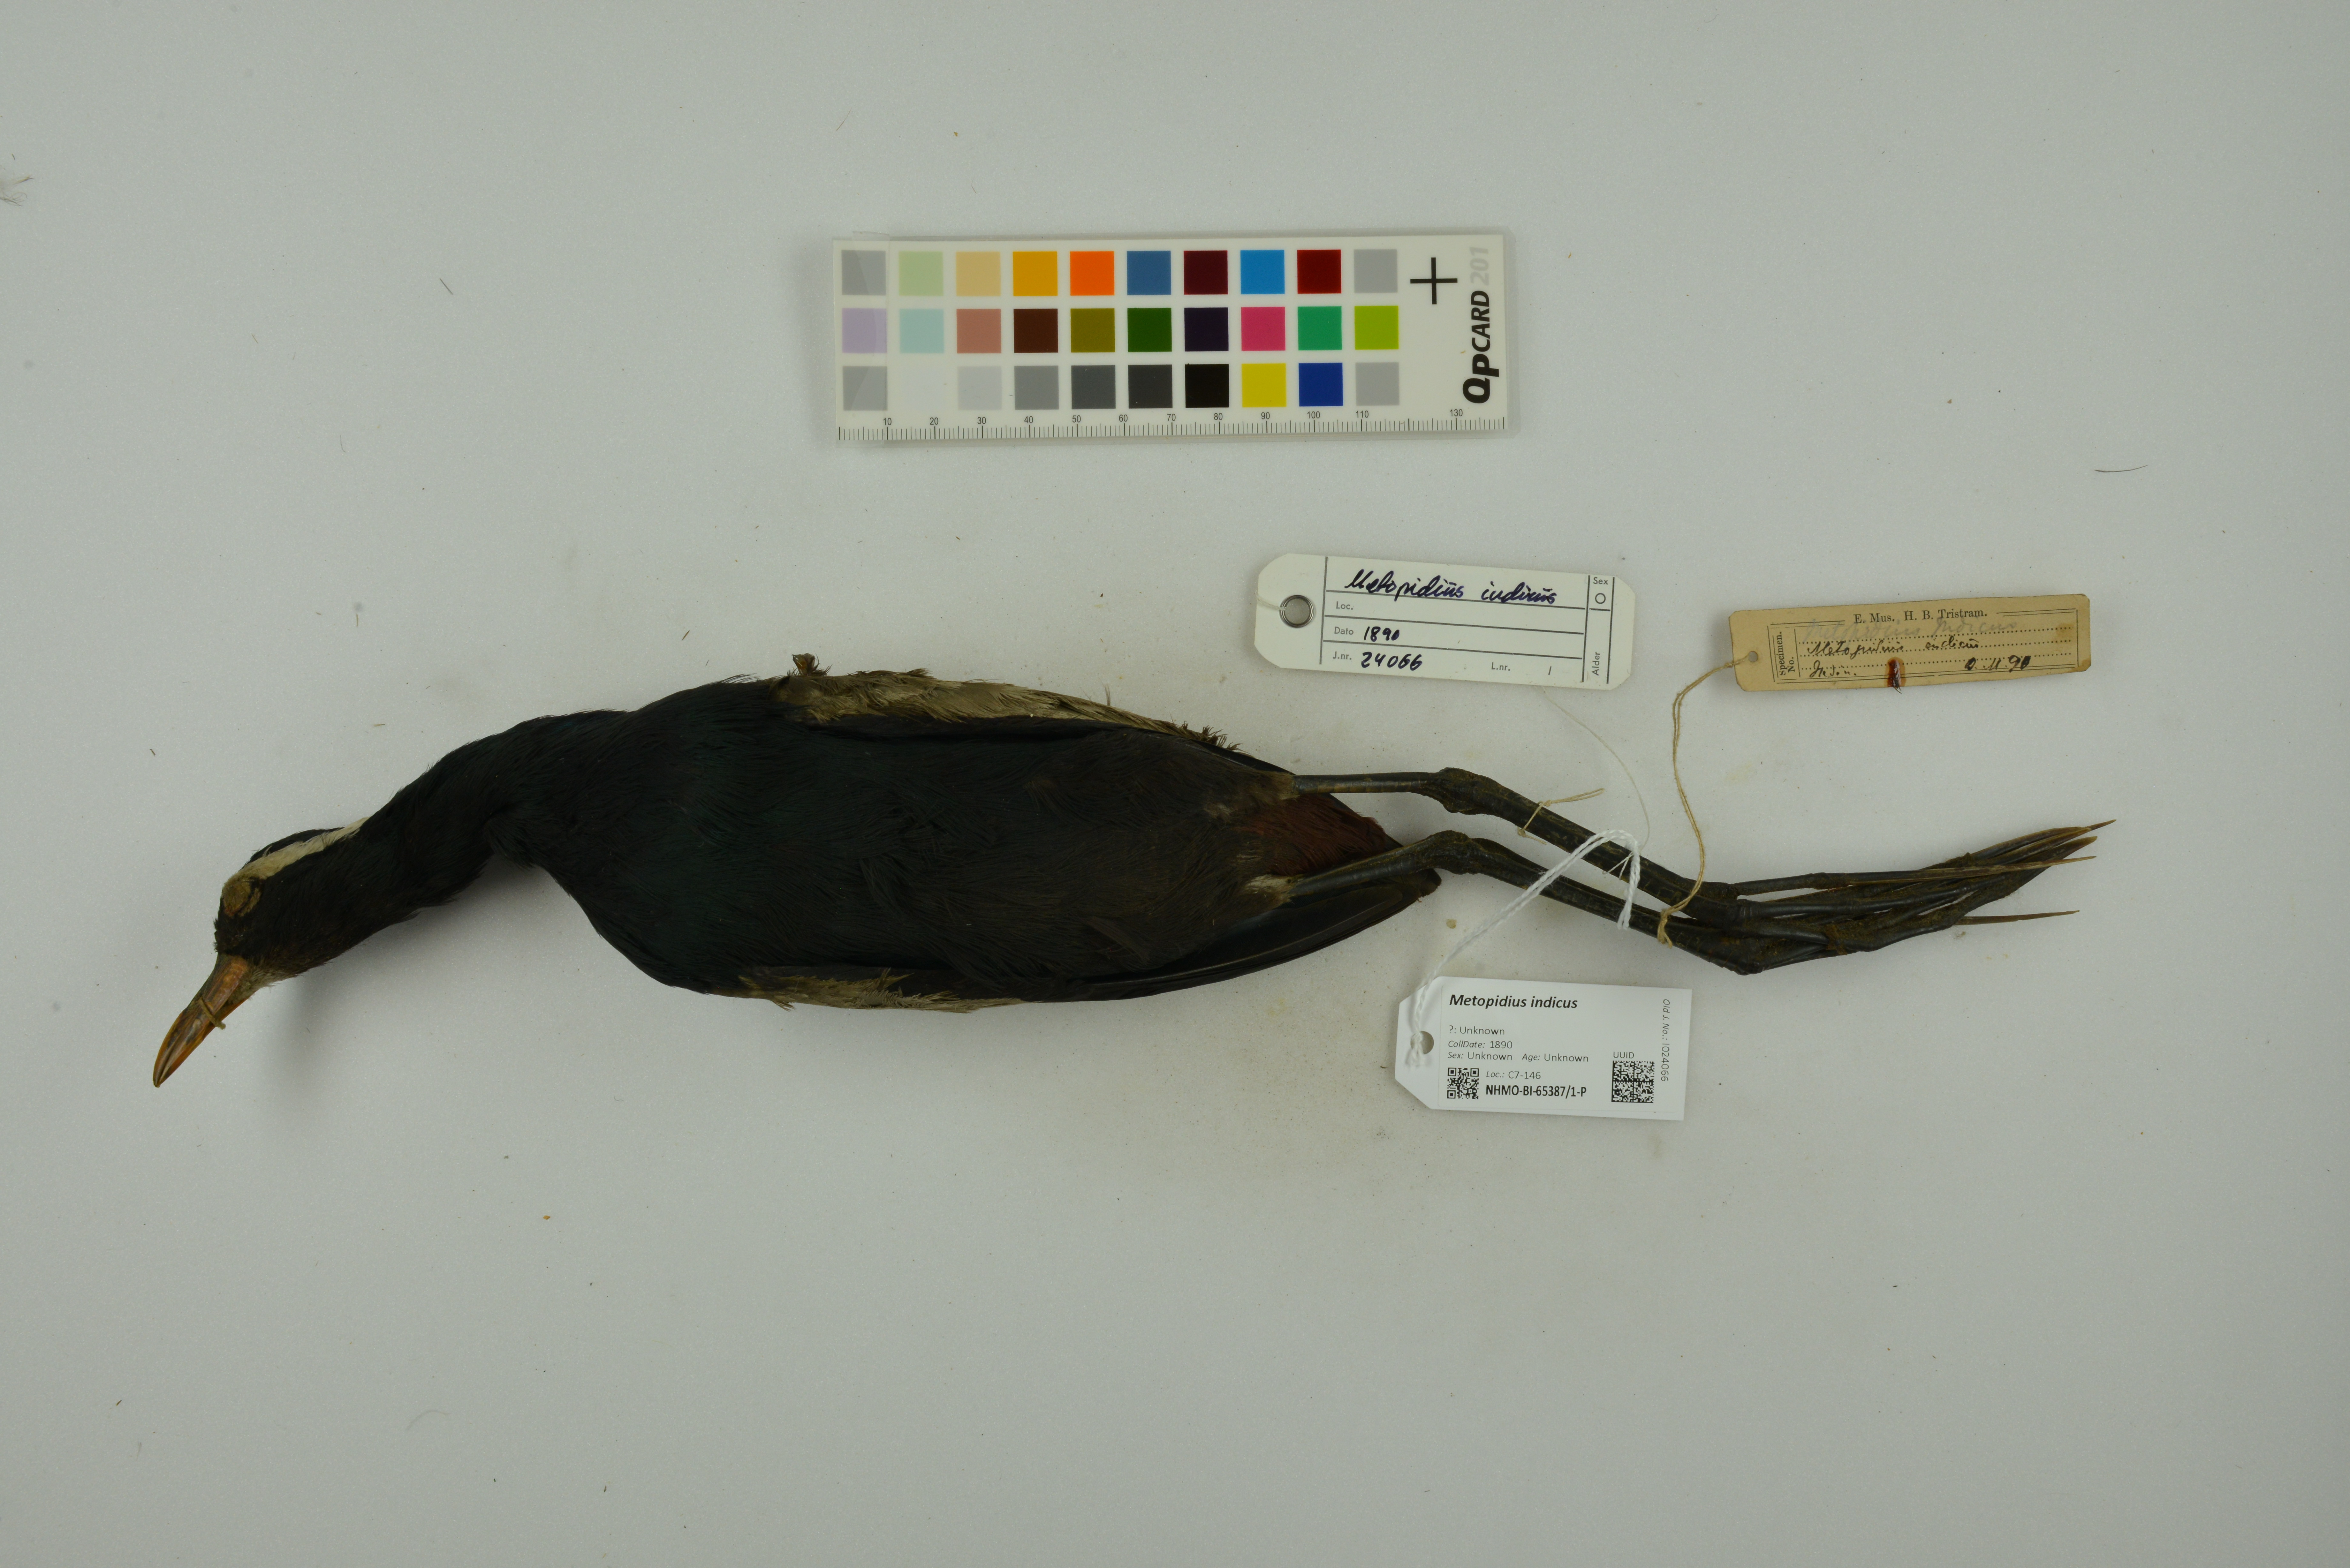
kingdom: Animalia
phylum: Chordata
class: Aves
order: Charadriiformes
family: Jacanidae
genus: Metopidius
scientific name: Metopidius indicus
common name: Bronze-winged jacana
